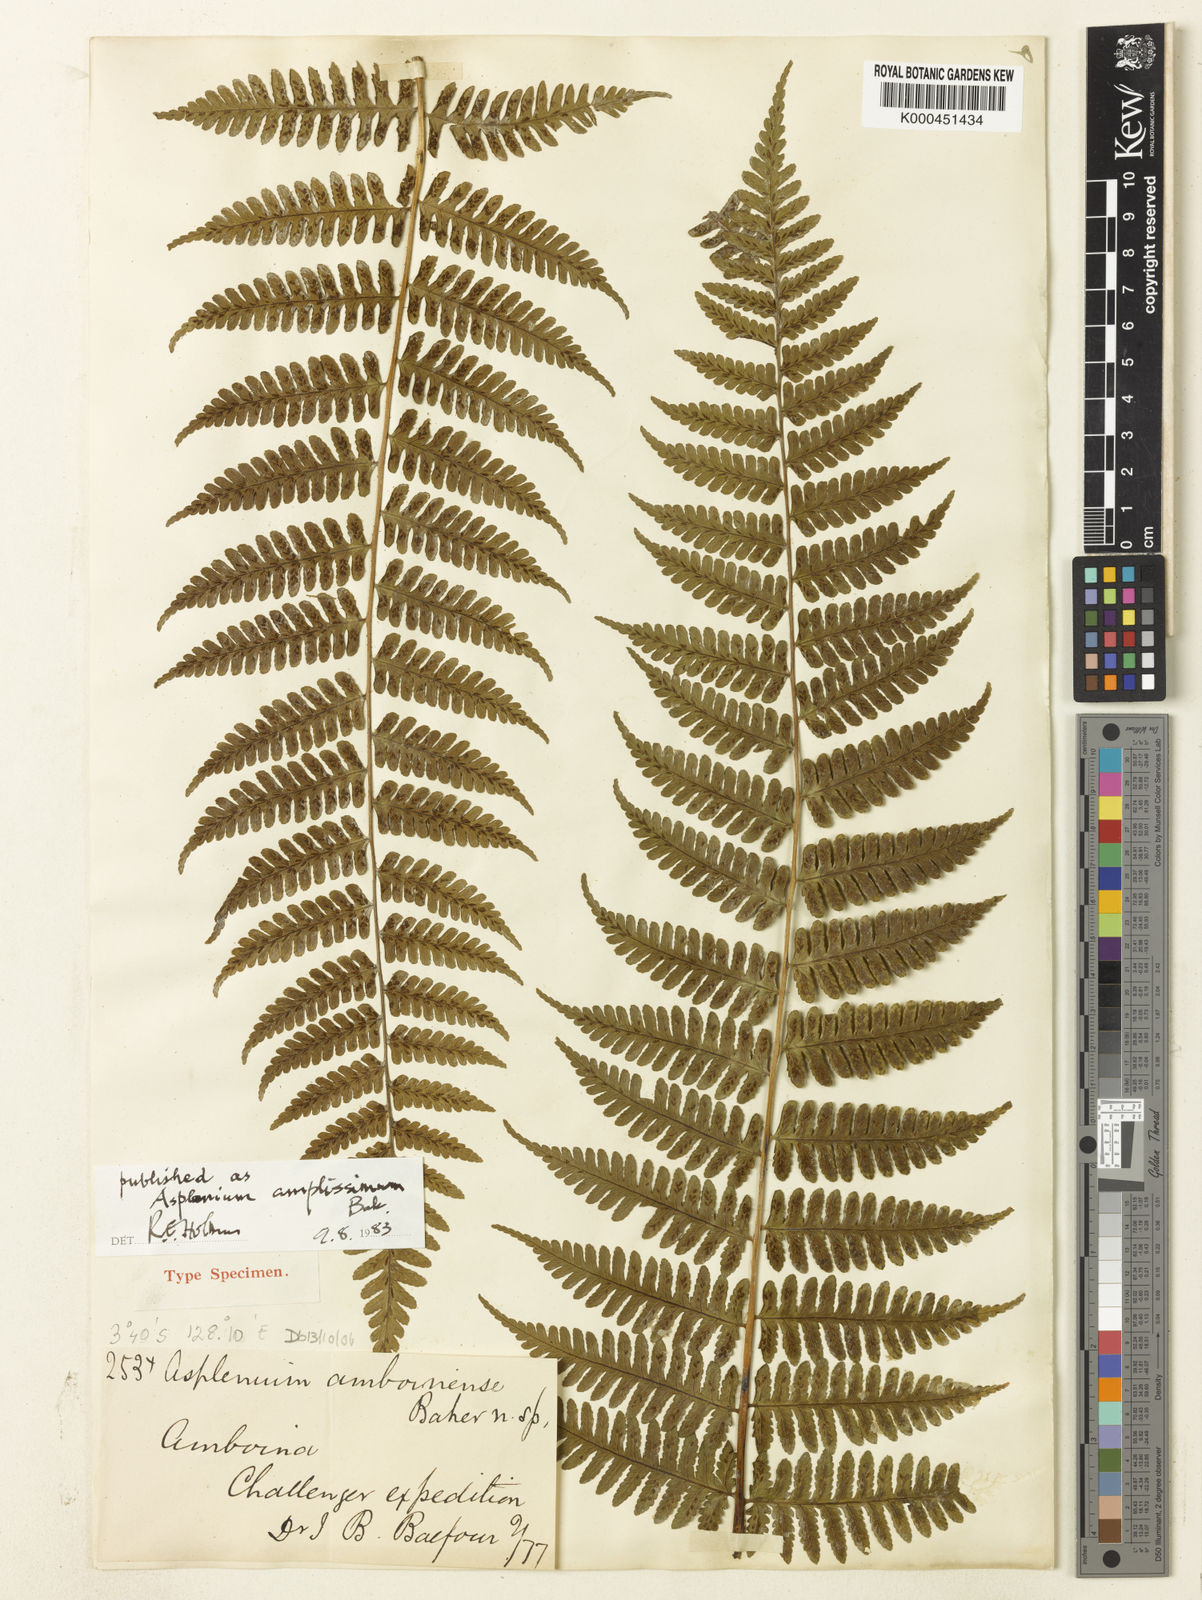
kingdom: Plantae
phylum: Tracheophyta
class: Polypodiopsida
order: Polypodiales
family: Athyriaceae
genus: Cornopteris
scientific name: Cornopteris atroviridis
